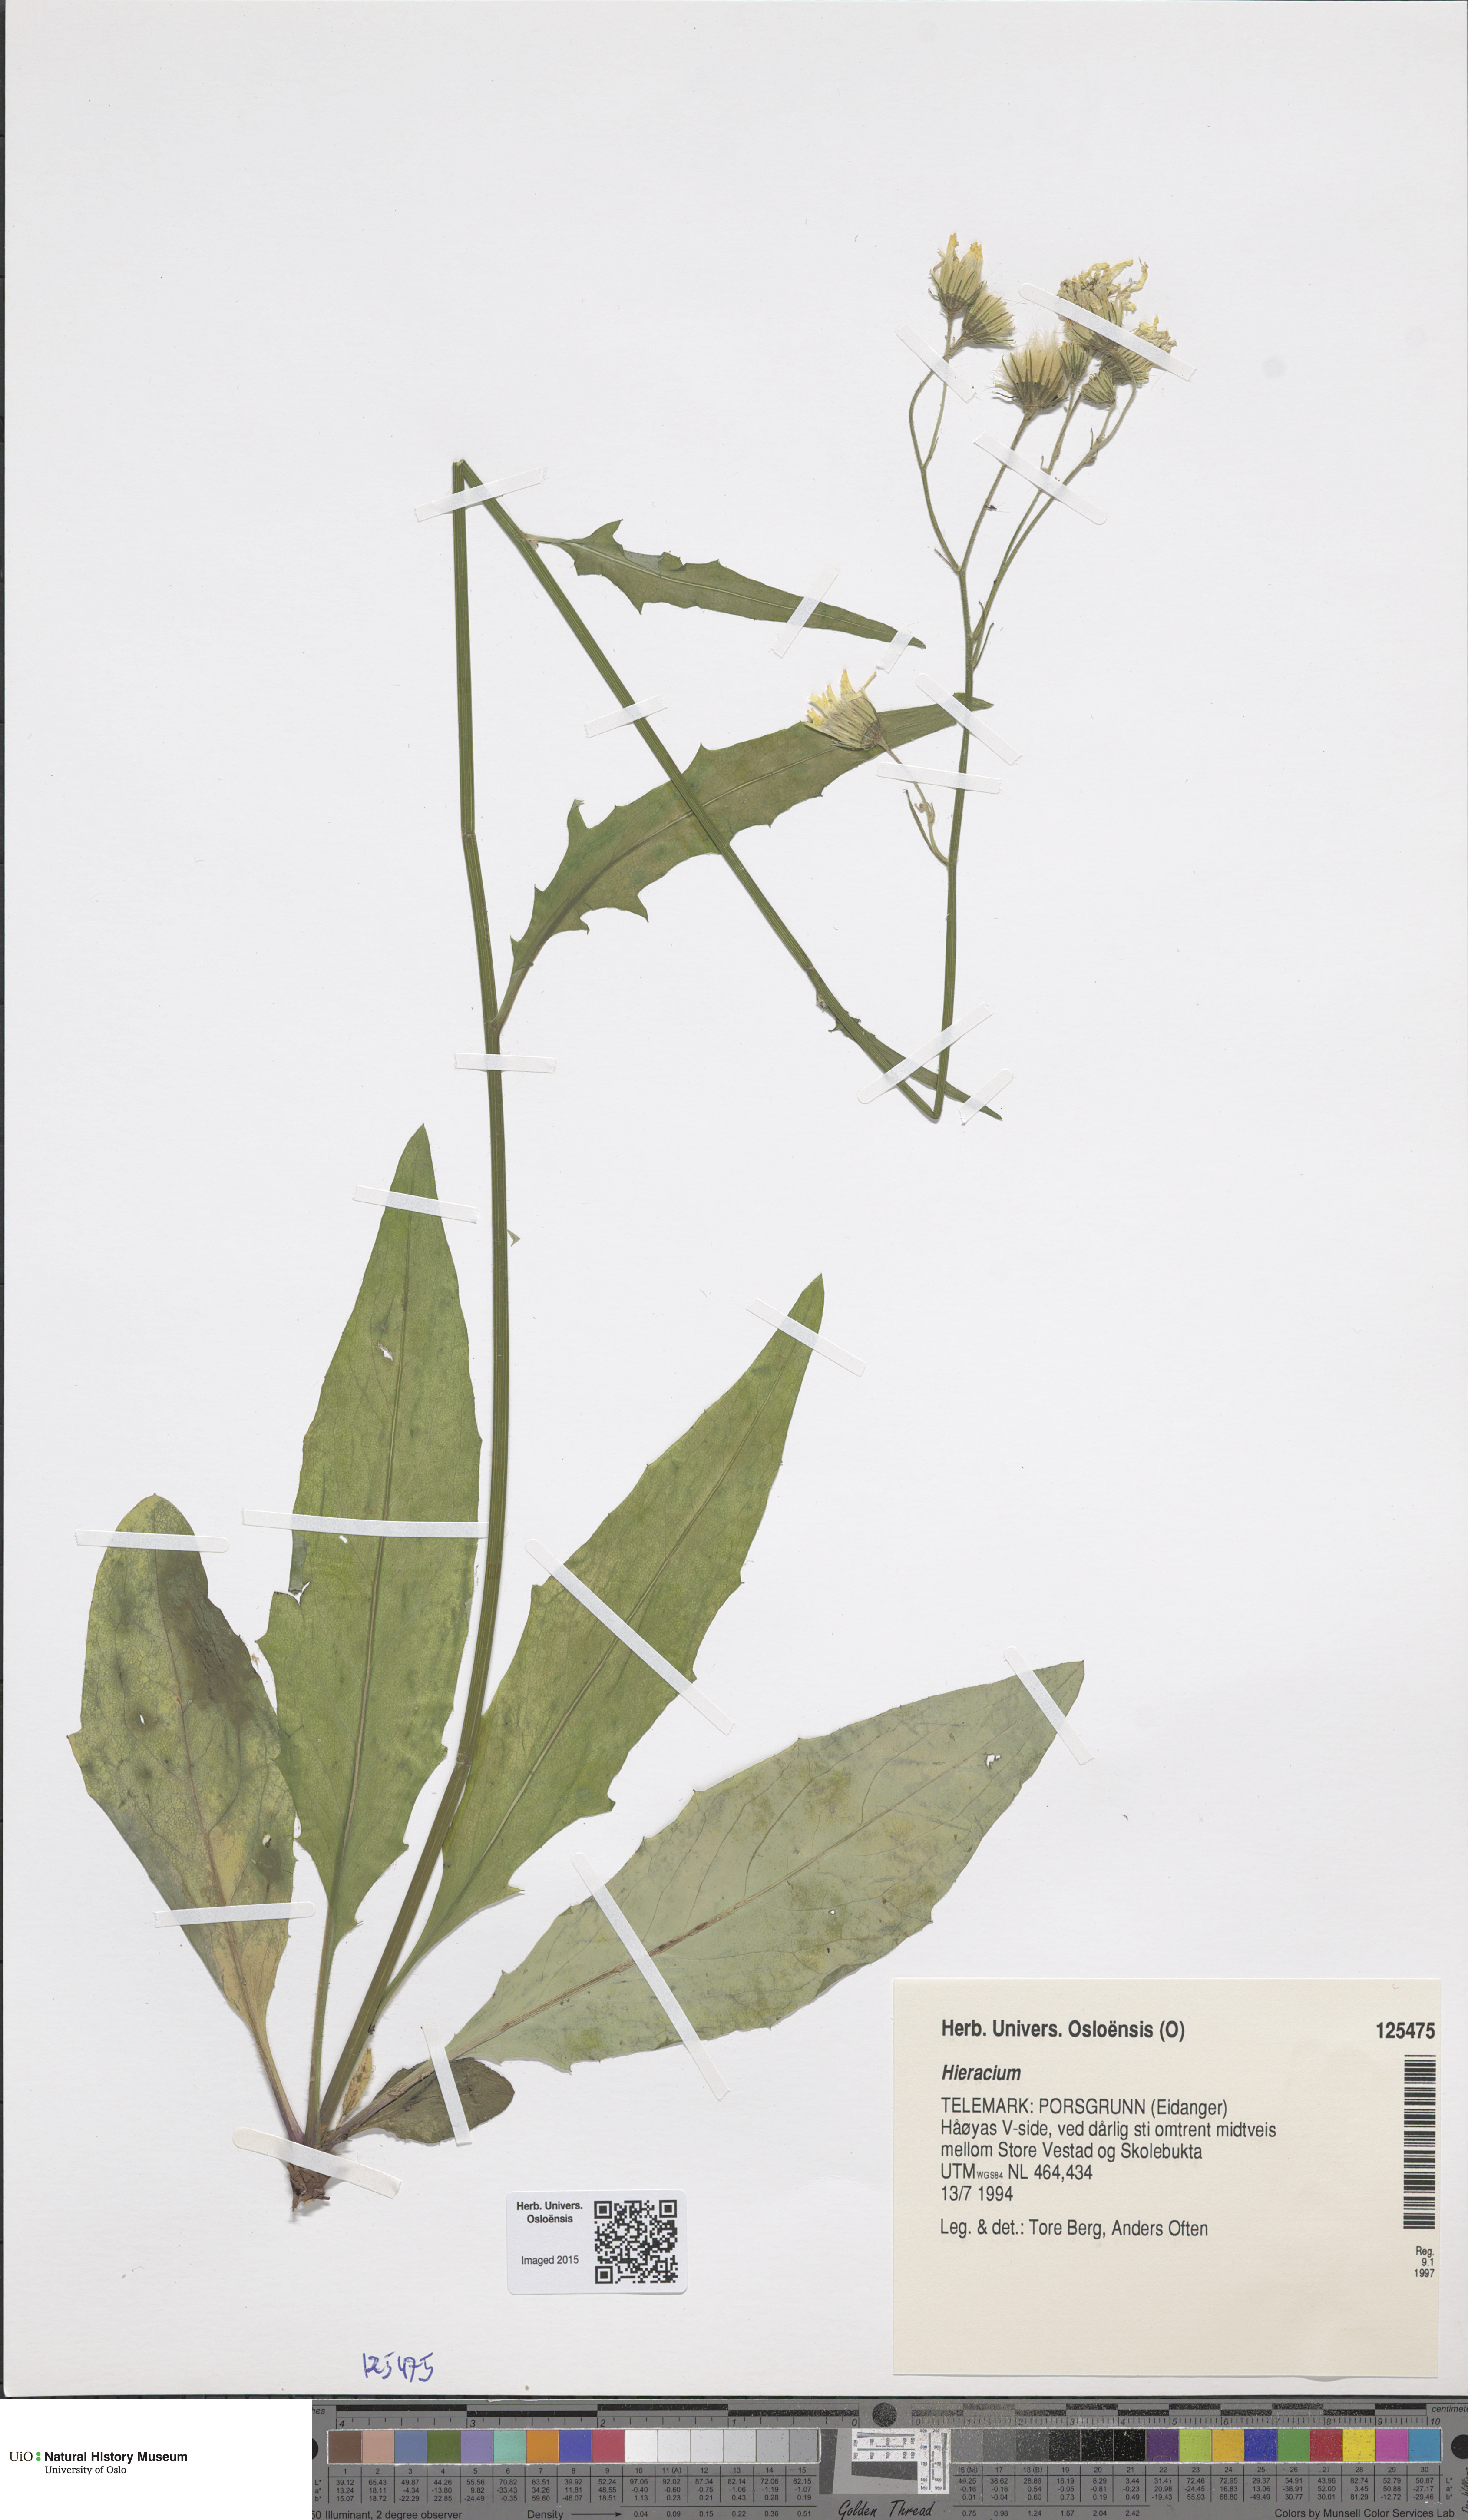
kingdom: Plantae
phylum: Tracheophyta
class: Magnoliopsida
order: Asterales
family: Asteraceae
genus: Hieracium
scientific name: Hieracium
